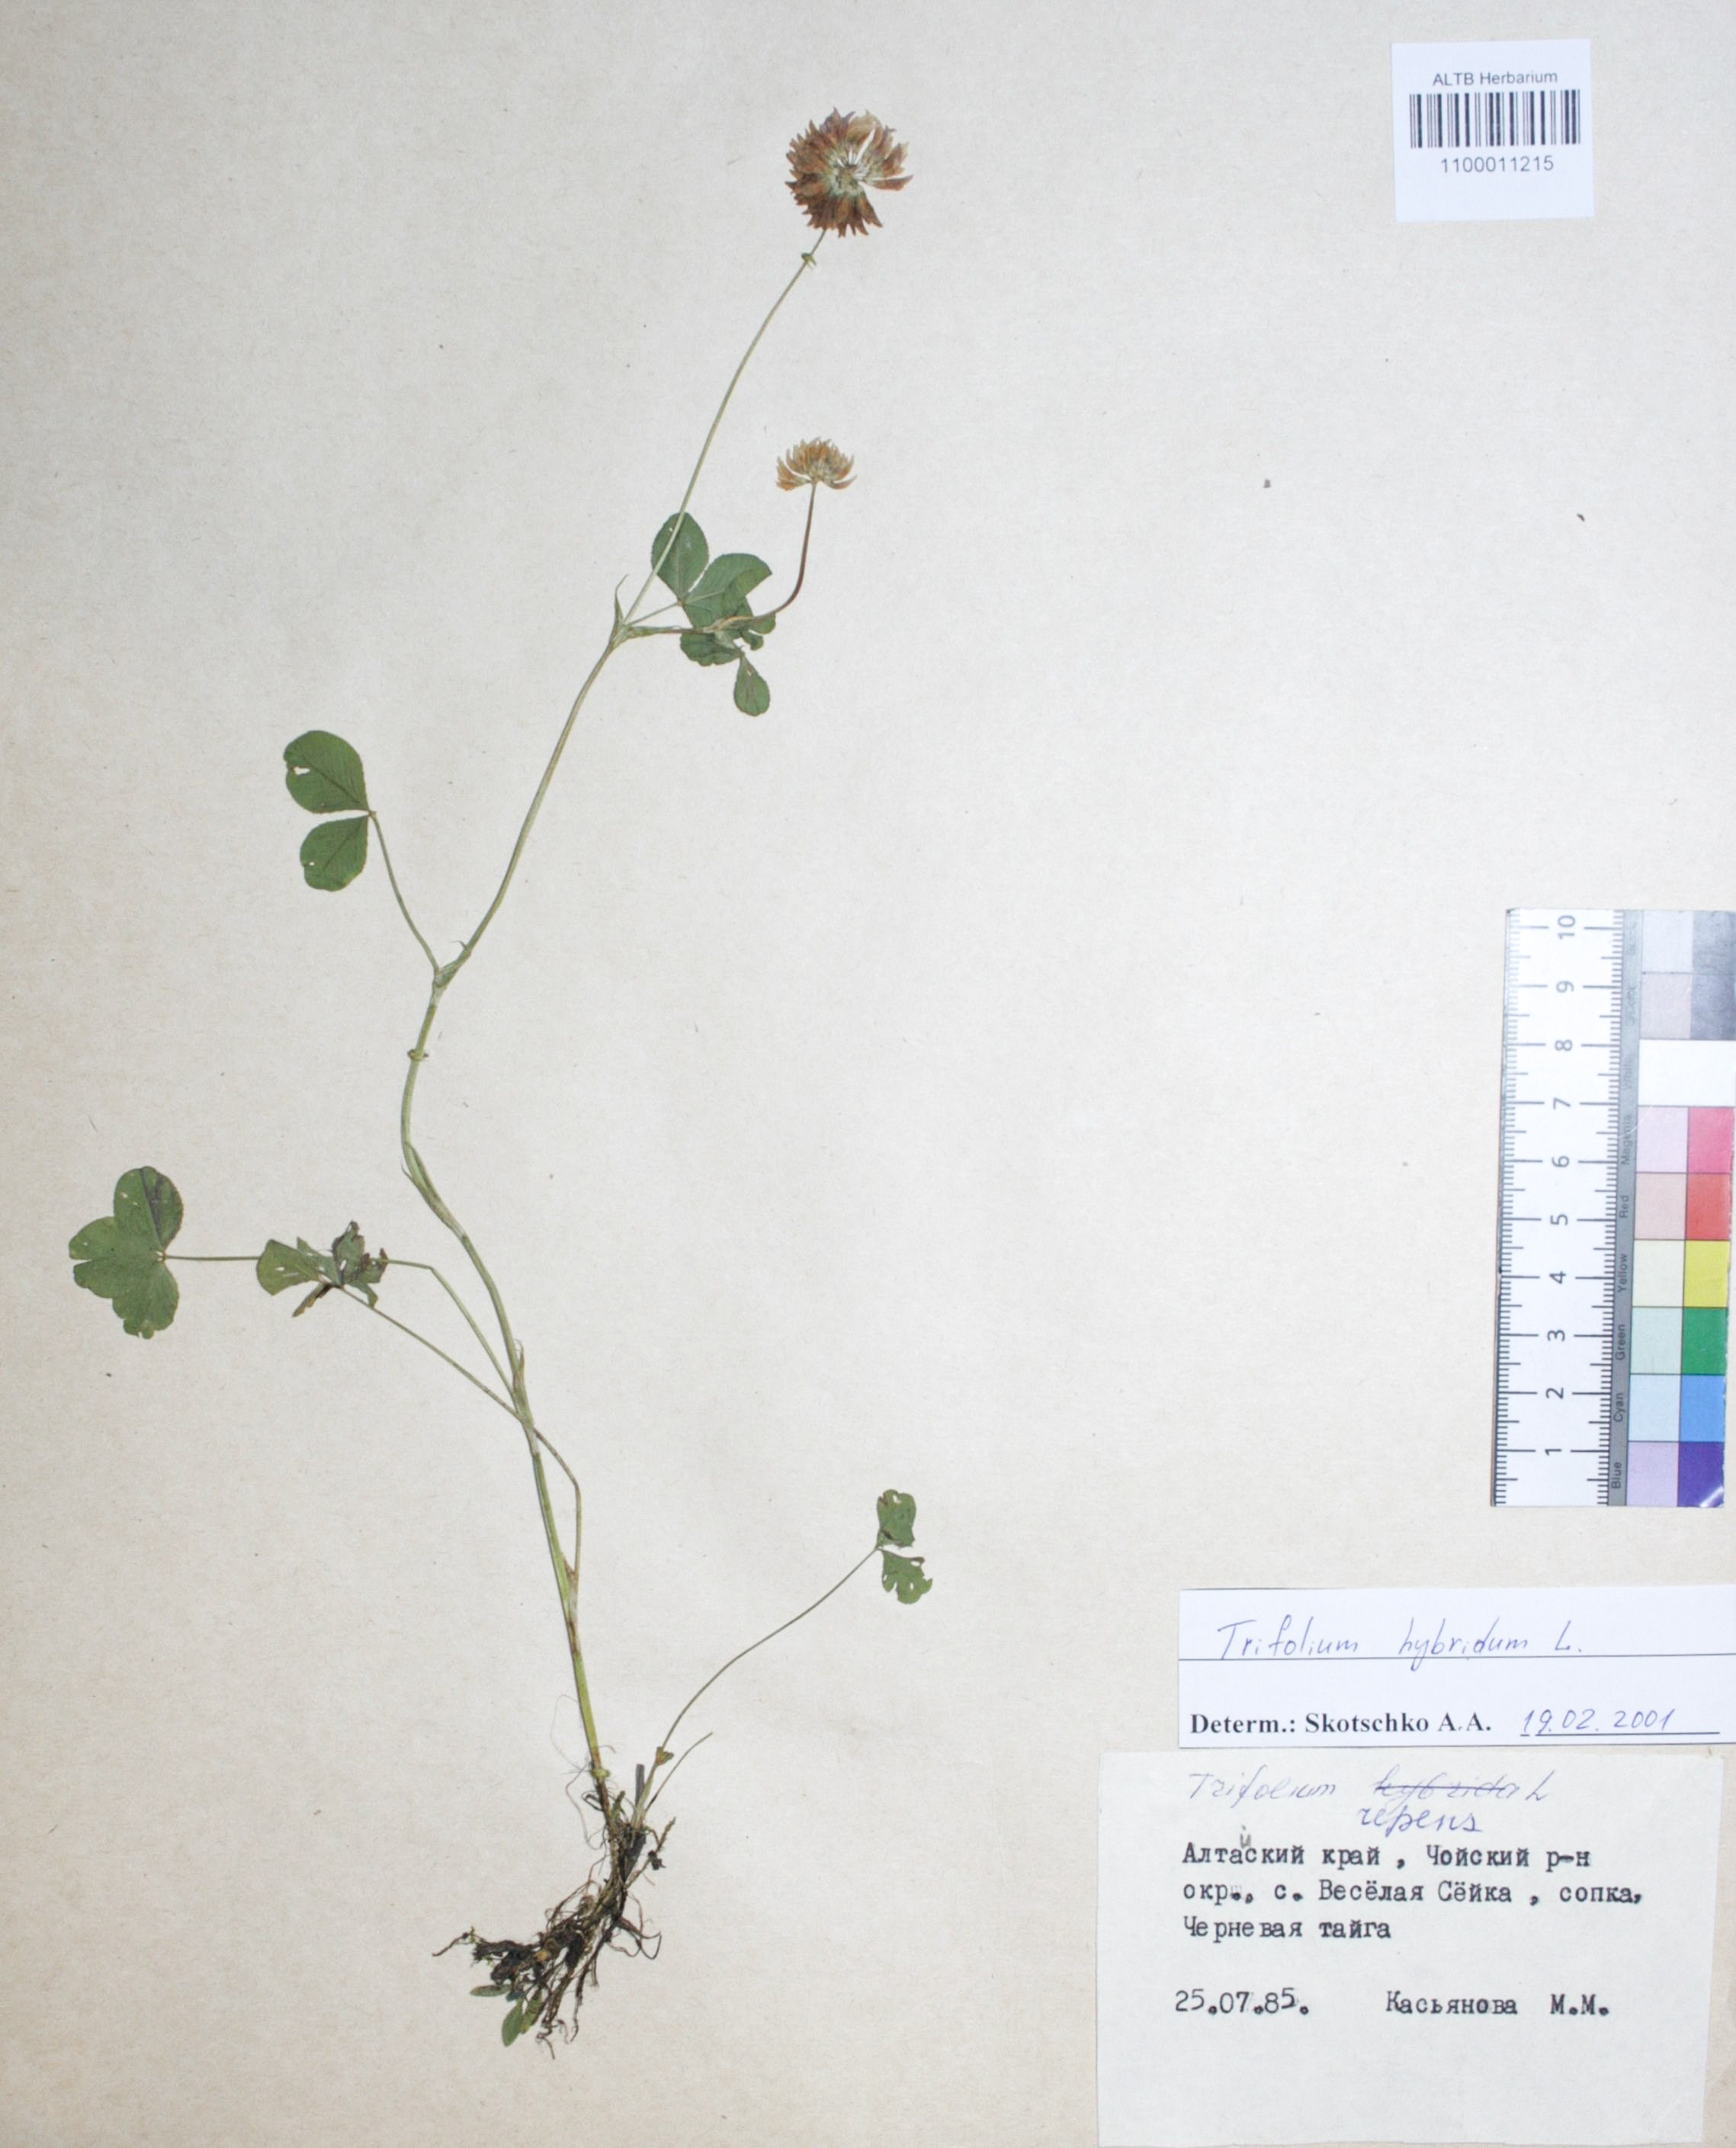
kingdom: Plantae
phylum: Tracheophyta
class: Magnoliopsida
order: Fabales
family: Fabaceae
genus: Trifolium
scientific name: Trifolium repens
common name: White clover
